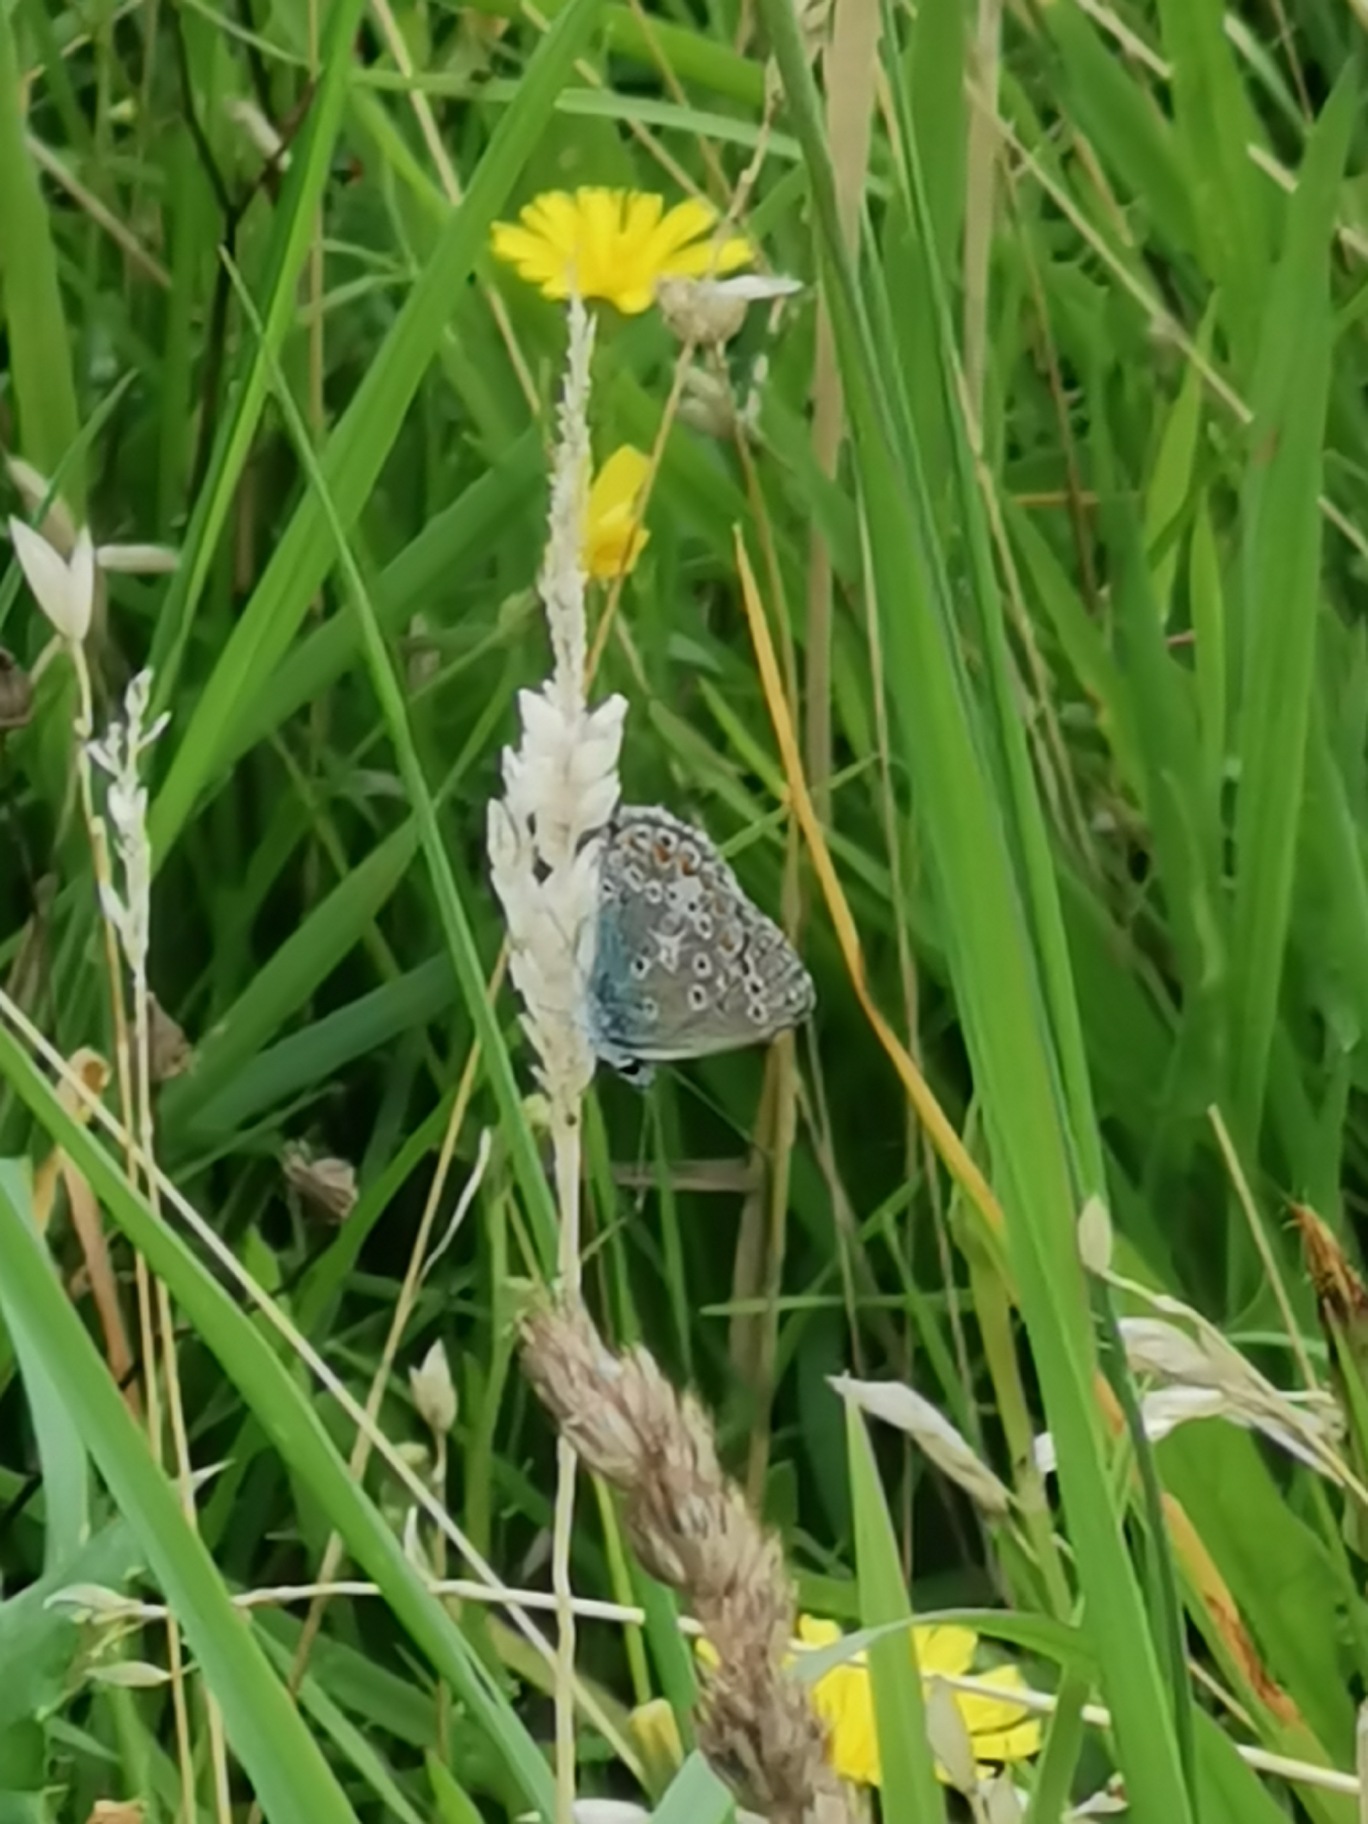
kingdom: Animalia
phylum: Arthropoda
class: Insecta
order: Lepidoptera
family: Lycaenidae
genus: Polyommatus
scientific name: Polyommatus icarus
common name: Almindelig blåfugl
